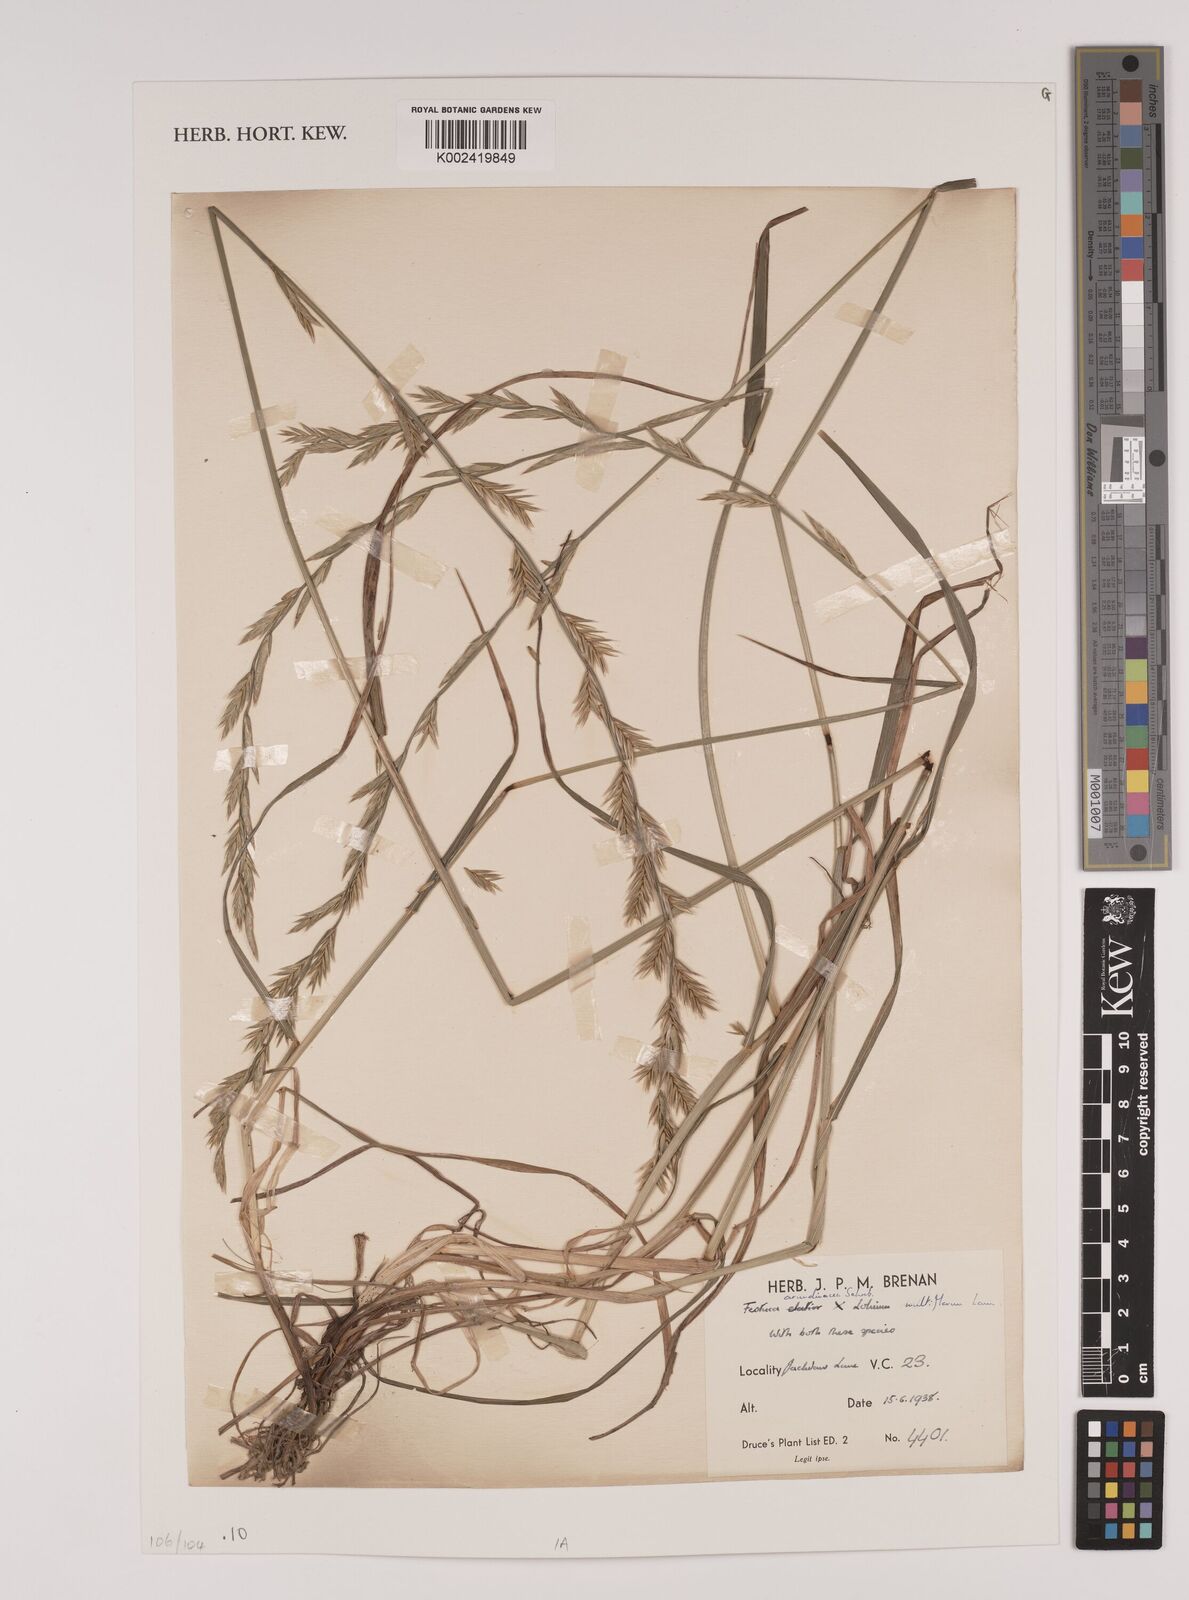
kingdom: Plantae
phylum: Tracheophyta
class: Liliopsida
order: Poales
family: Poaceae
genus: Lolium
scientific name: Lolium arundinaceum
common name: Reed fescue
